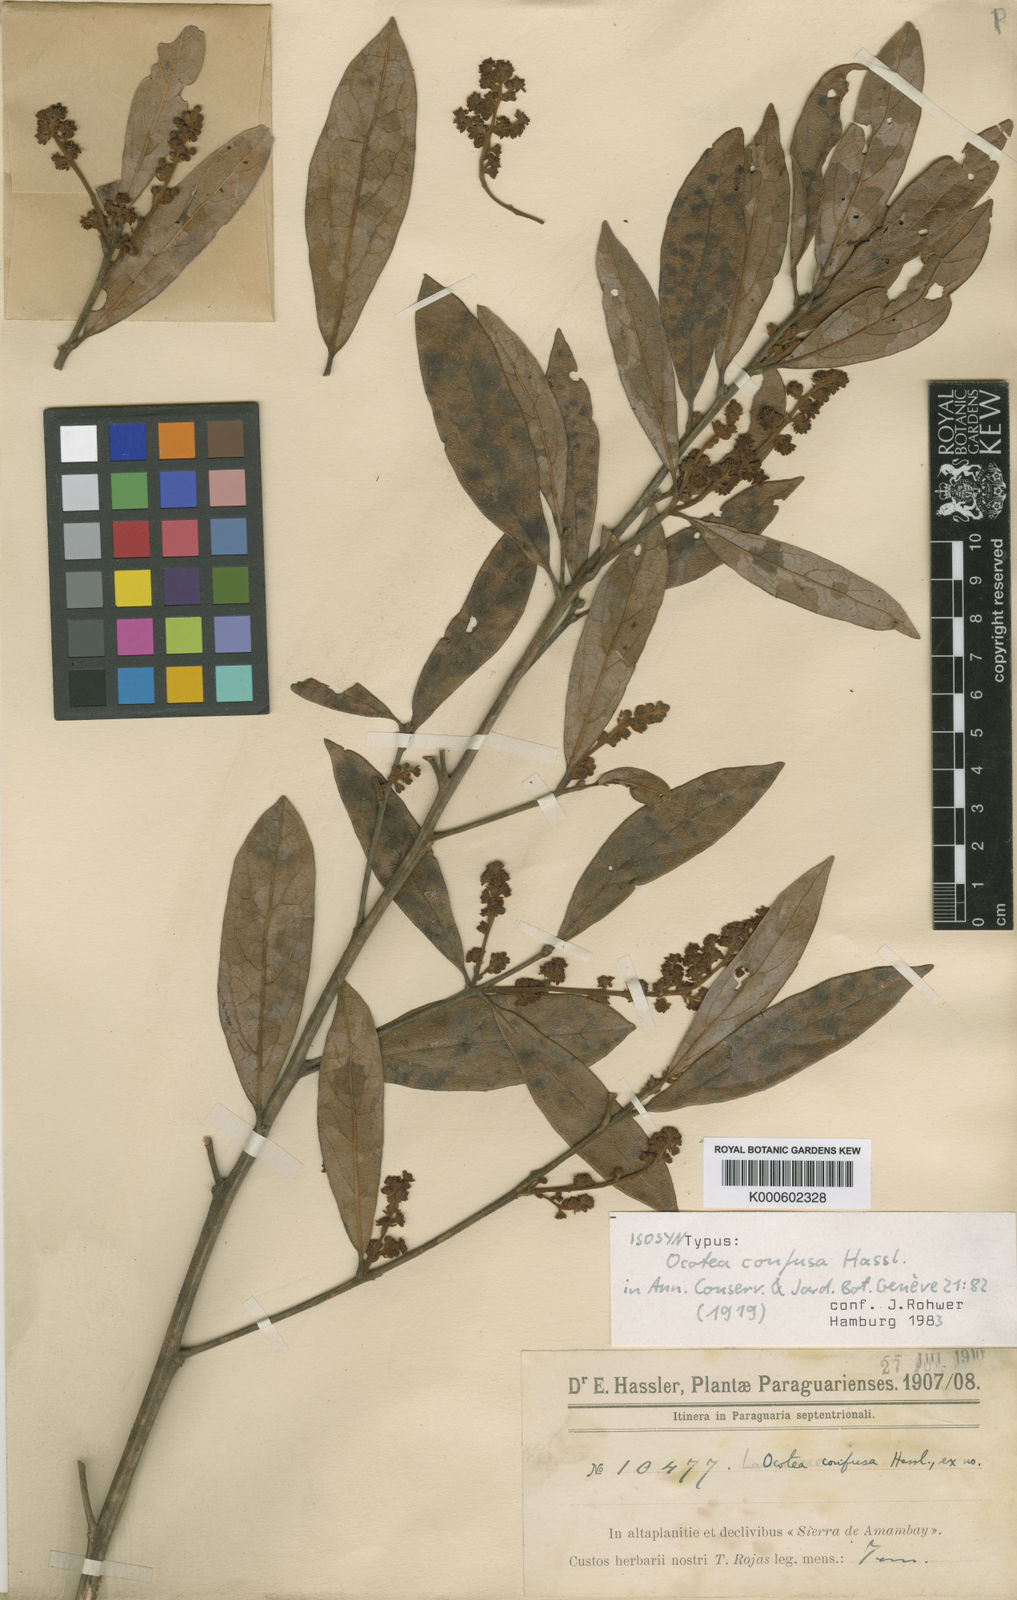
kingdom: Plantae
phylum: Tracheophyta
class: Magnoliopsida
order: Laurales
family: Lauraceae
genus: Ocotea
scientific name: Ocotea densiflora
